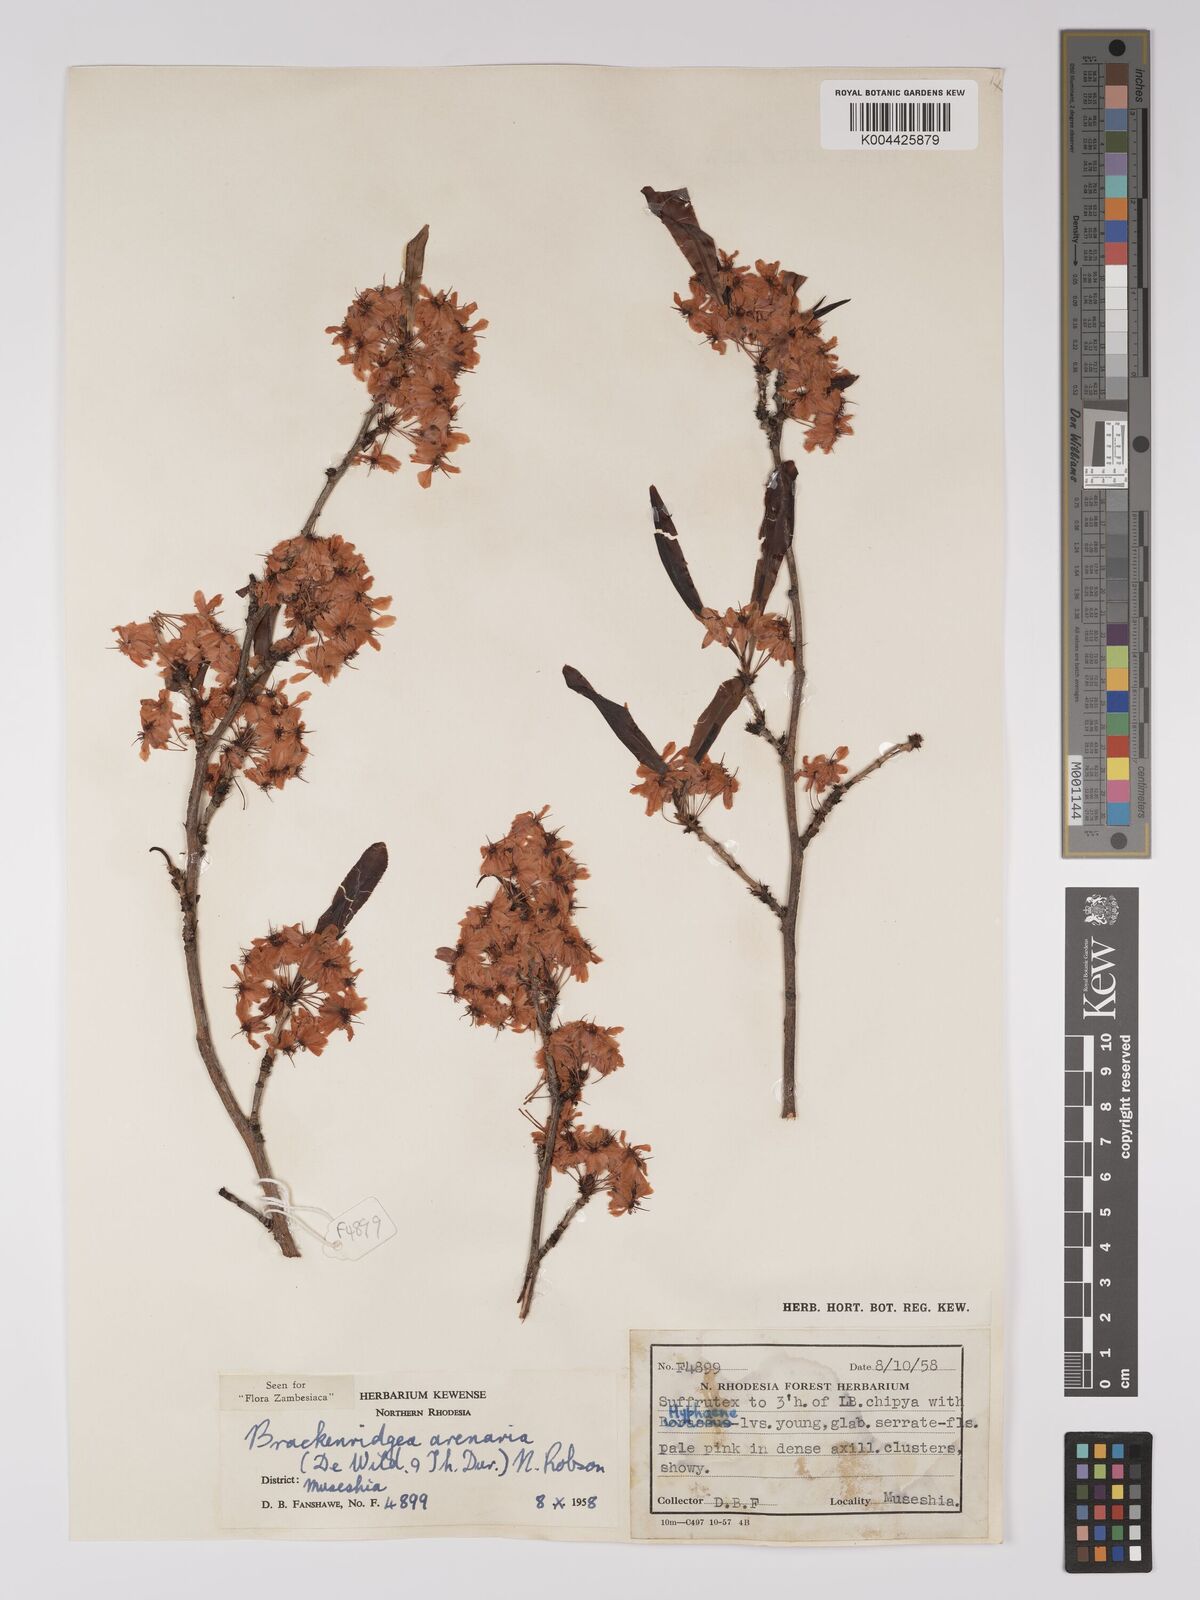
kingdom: Plantae
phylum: Tracheophyta
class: Magnoliopsida
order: Malpighiales
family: Ochnaceae
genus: Ochna
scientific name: Ochna arenaria
